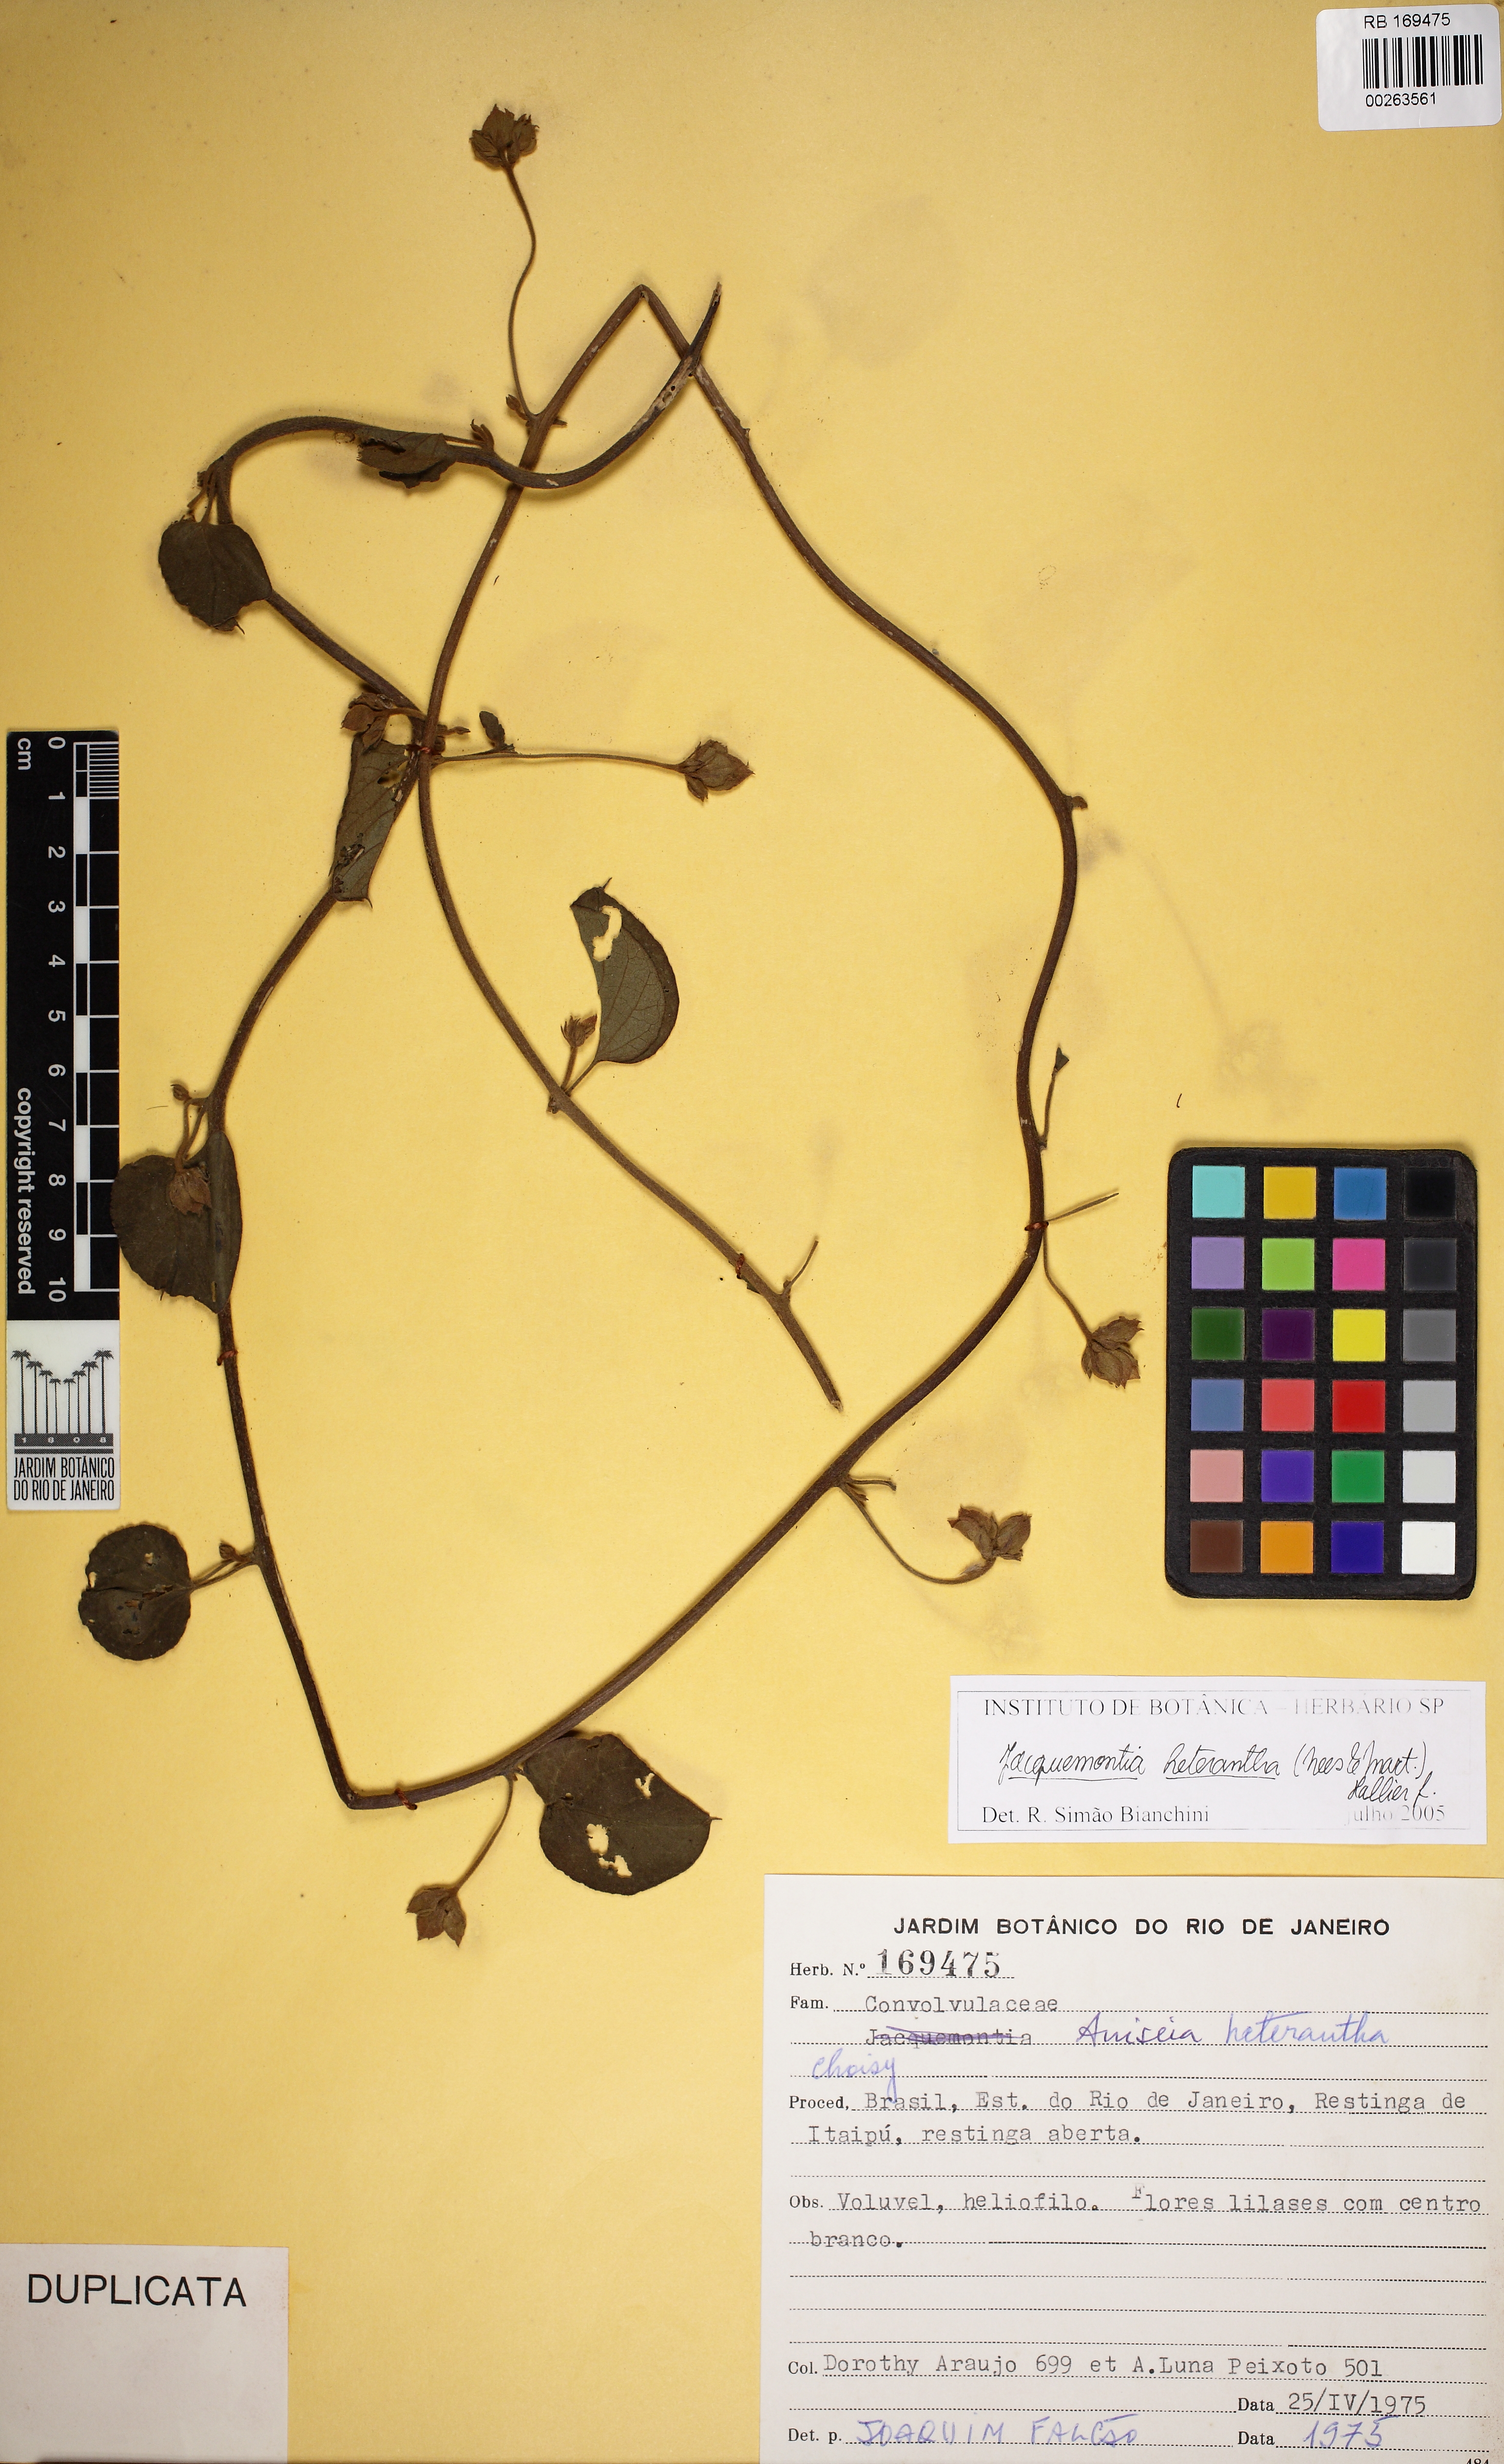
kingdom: Plantae
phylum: Tracheophyta
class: Magnoliopsida
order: Solanales
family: Convolvulaceae
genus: Jacquemontia
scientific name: Jacquemontia cumanensis
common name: Thicket clustervine
